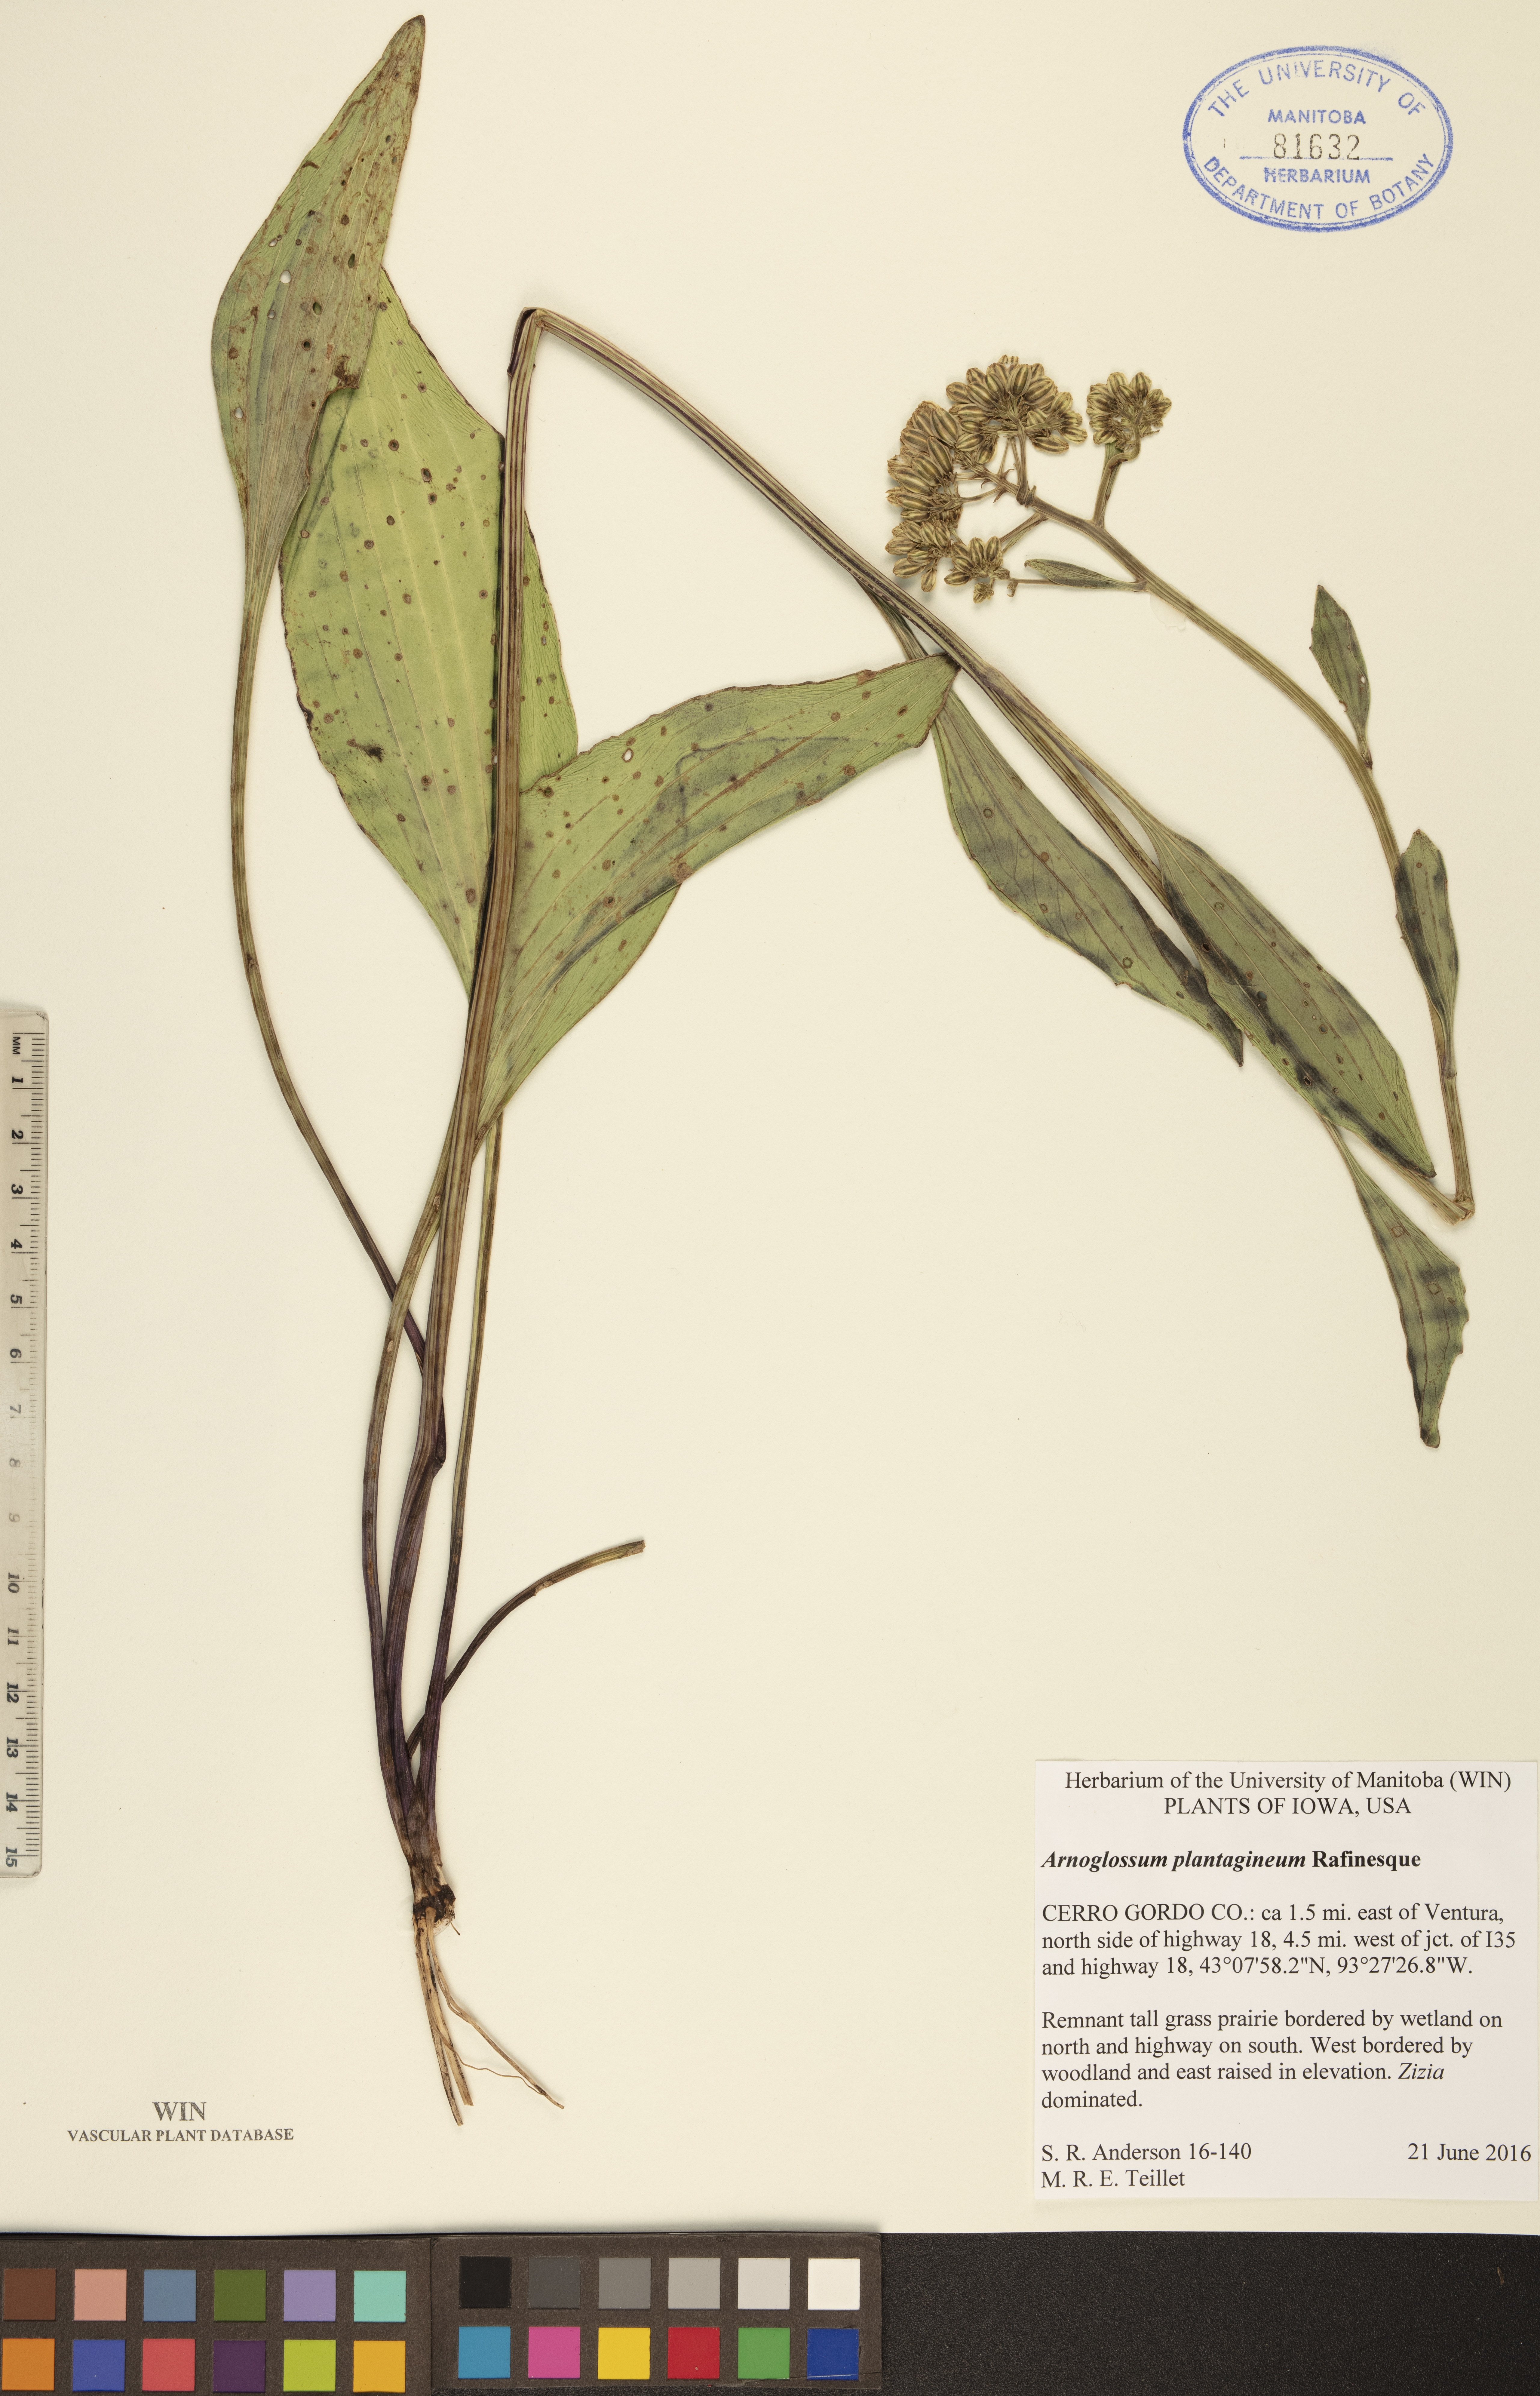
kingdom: Plantae
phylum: Tracheophyta
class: Magnoliopsida
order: Asterales
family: Asteraceae
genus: Arnoglossum
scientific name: Arnoglossum plantagineum
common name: Groove-stemmed indian-plantain
